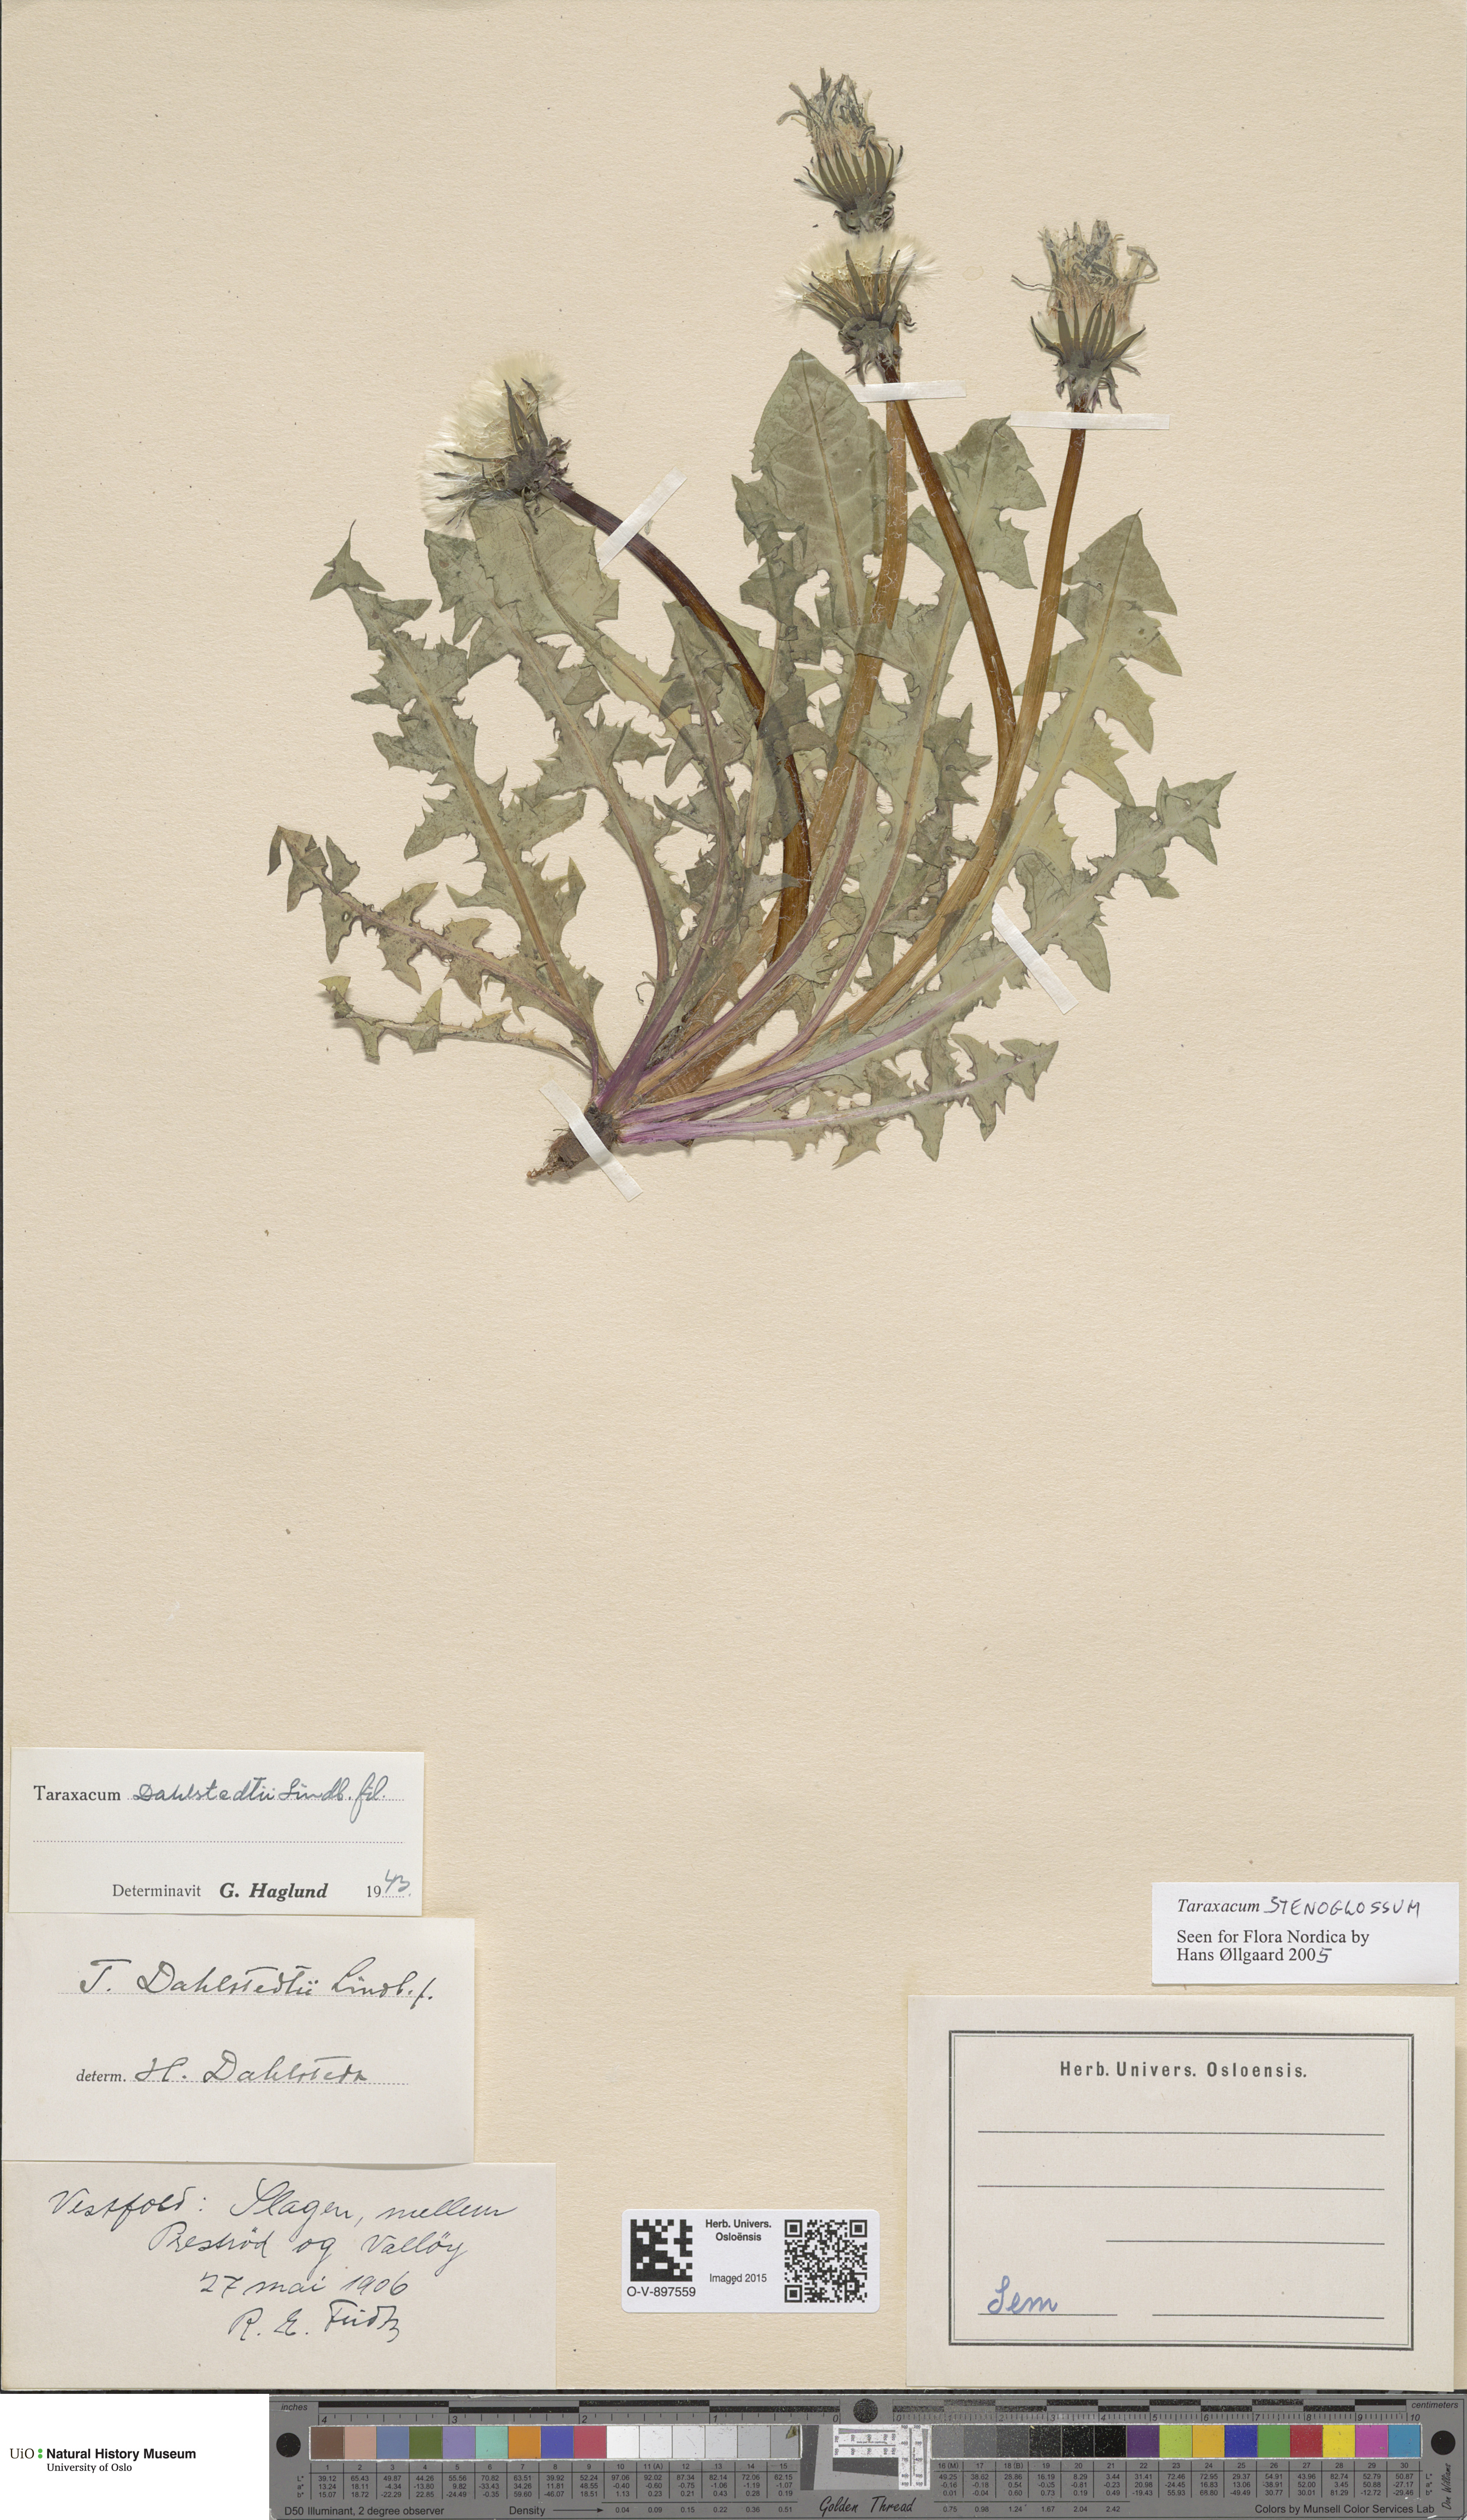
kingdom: Plantae
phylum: Tracheophyta
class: Magnoliopsida
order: Asterales
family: Asteraceae
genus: Taraxacum
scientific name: Taraxacum stenoglossum
